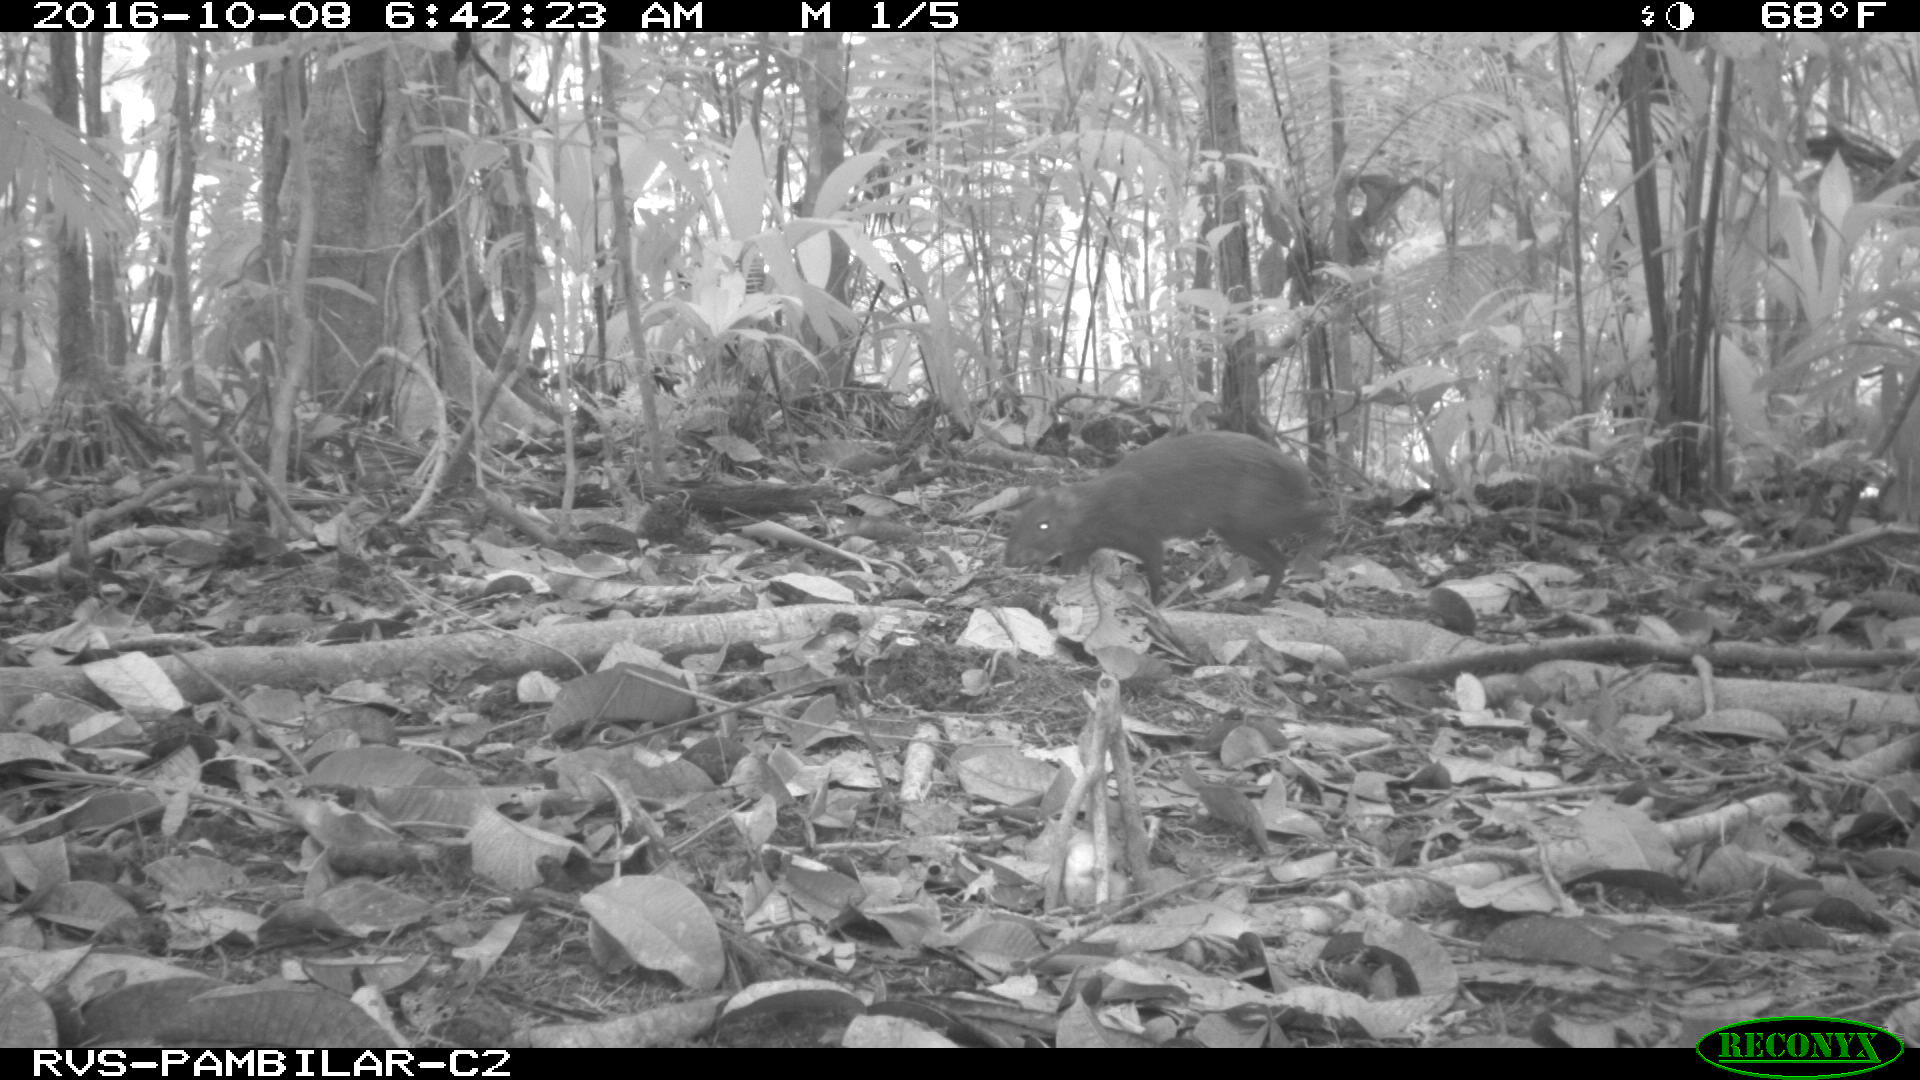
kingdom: Animalia
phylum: Chordata
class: Mammalia
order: Rodentia
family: Dasyproctidae
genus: Dasyprocta
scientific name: Dasyprocta punctata
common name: Central american agouti
